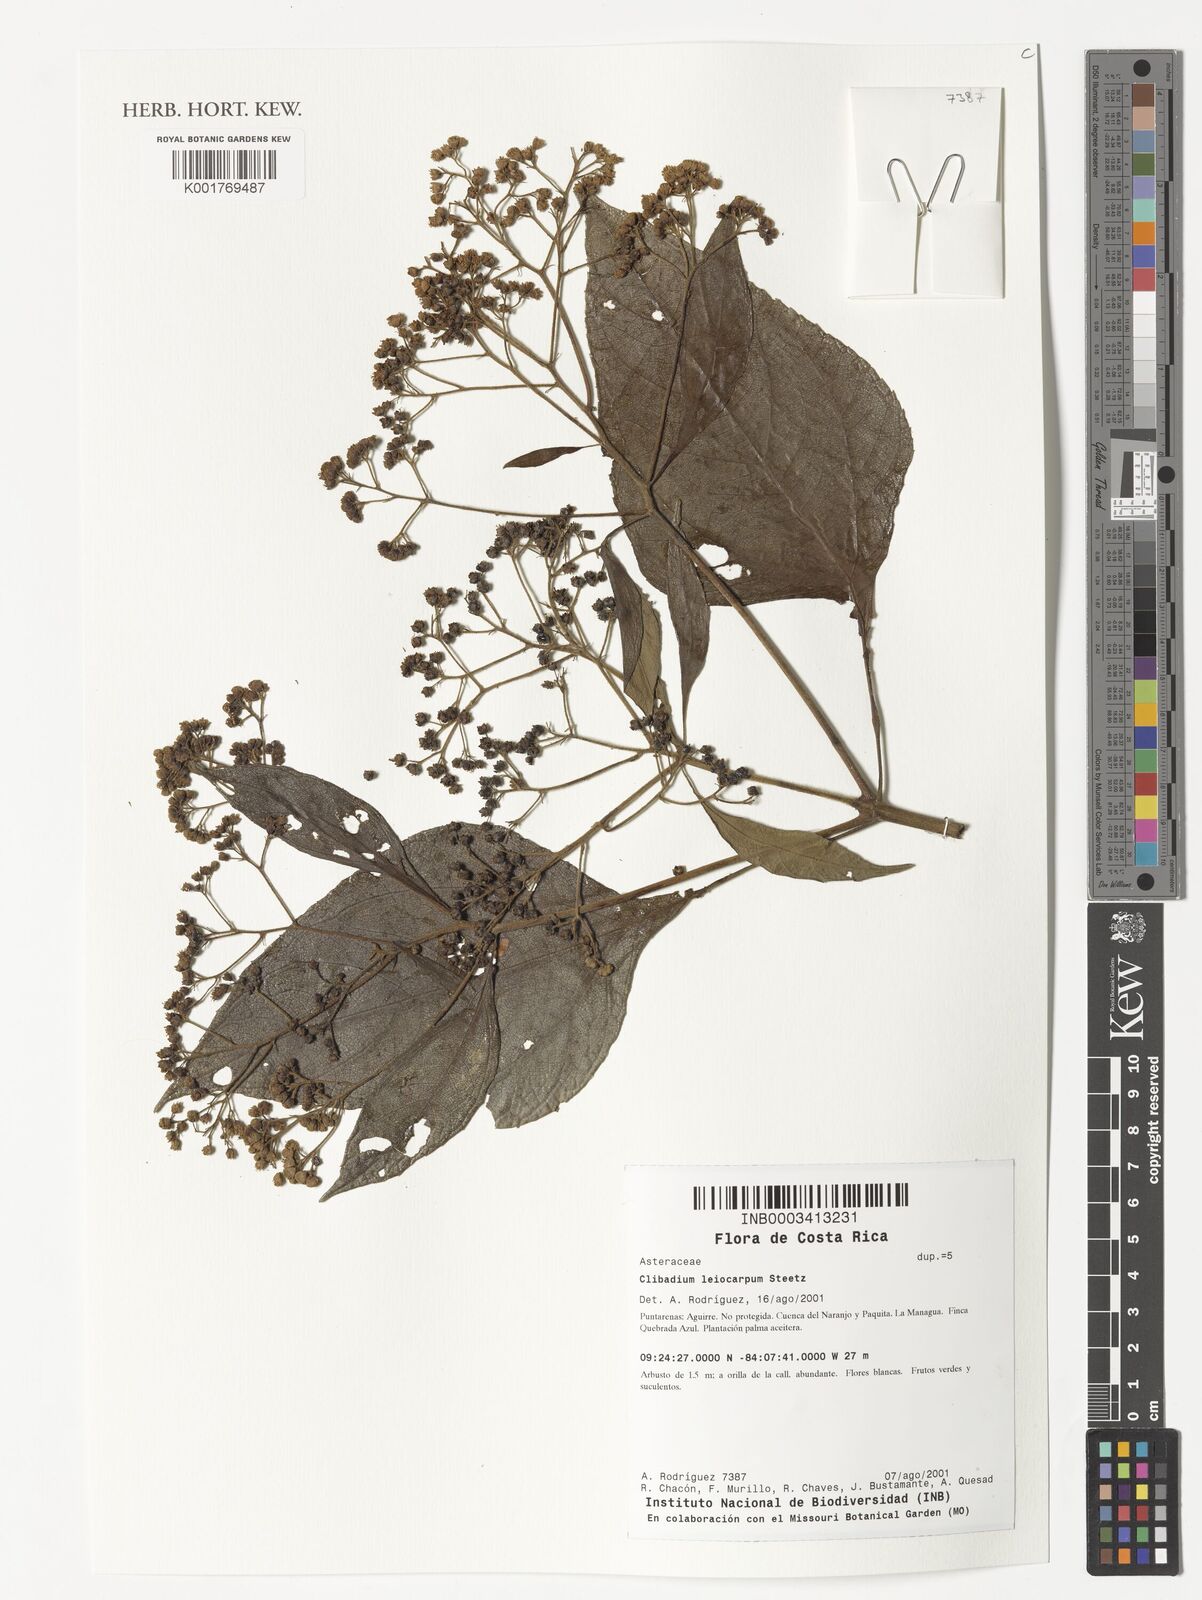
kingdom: Plantae
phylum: Tracheophyta
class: Magnoliopsida
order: Asterales
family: Asteraceae
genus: Clibadium
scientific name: Clibadium leiocarpum
